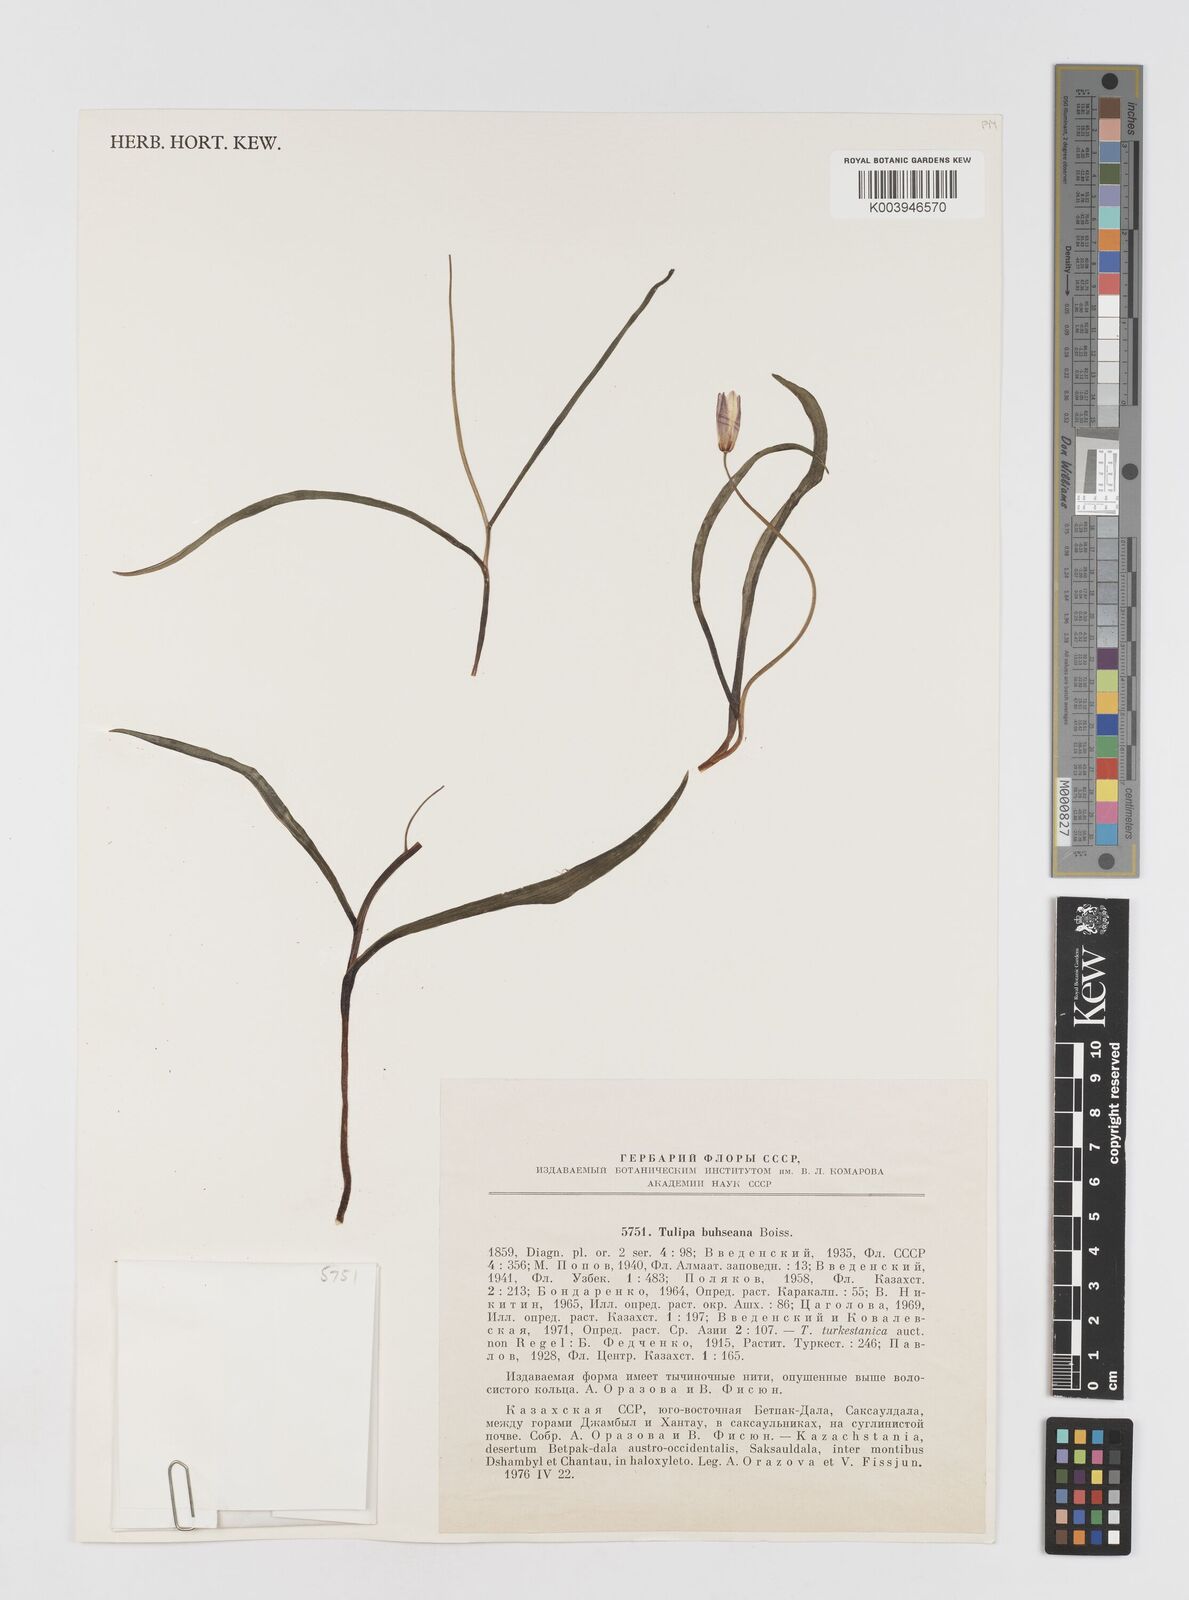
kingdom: Plantae
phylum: Tracheophyta
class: Liliopsida
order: Liliales
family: Liliaceae
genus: Tulipa
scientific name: Tulipa biflora
